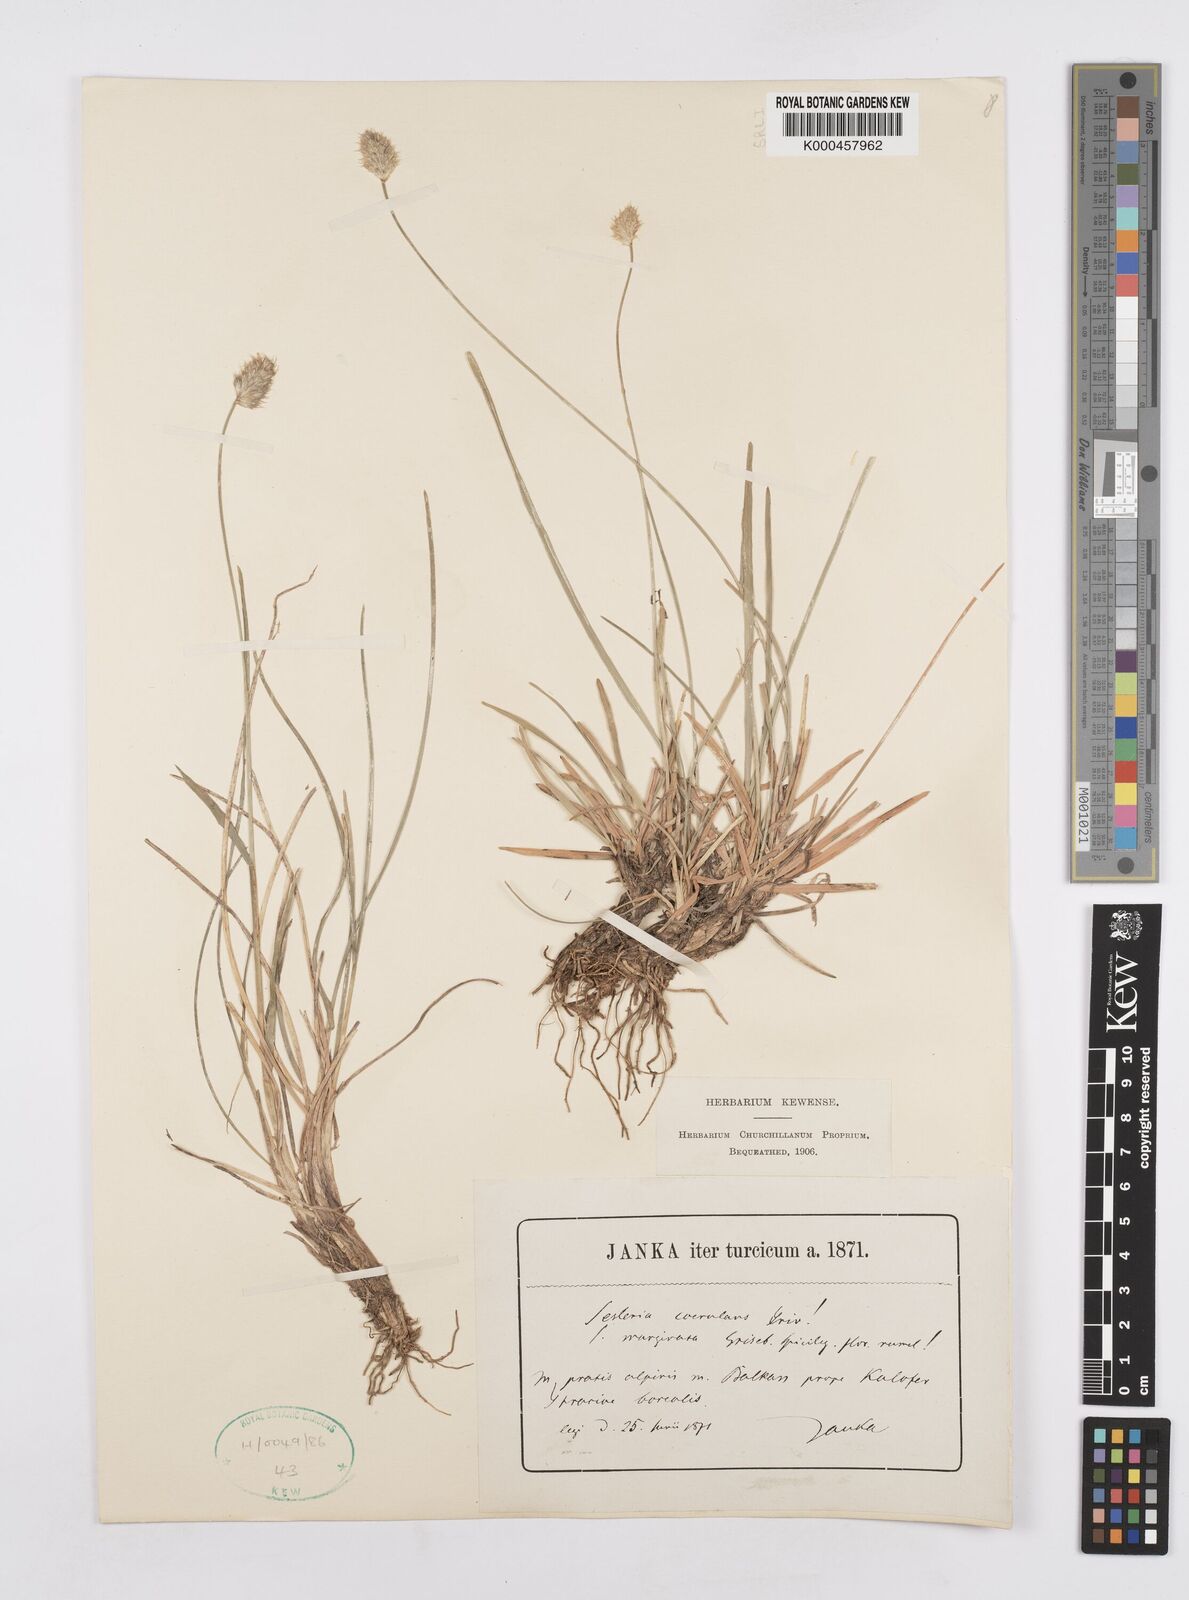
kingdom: Plantae
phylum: Tracheophyta
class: Liliopsida
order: Poales
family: Poaceae
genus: Sesleria
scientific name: Sesleria coerulans
